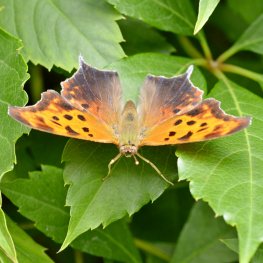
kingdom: Animalia
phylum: Arthropoda
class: Insecta
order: Lepidoptera
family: Nymphalidae
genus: Polygonia
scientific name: Polygonia interrogationis
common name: Question Mark
